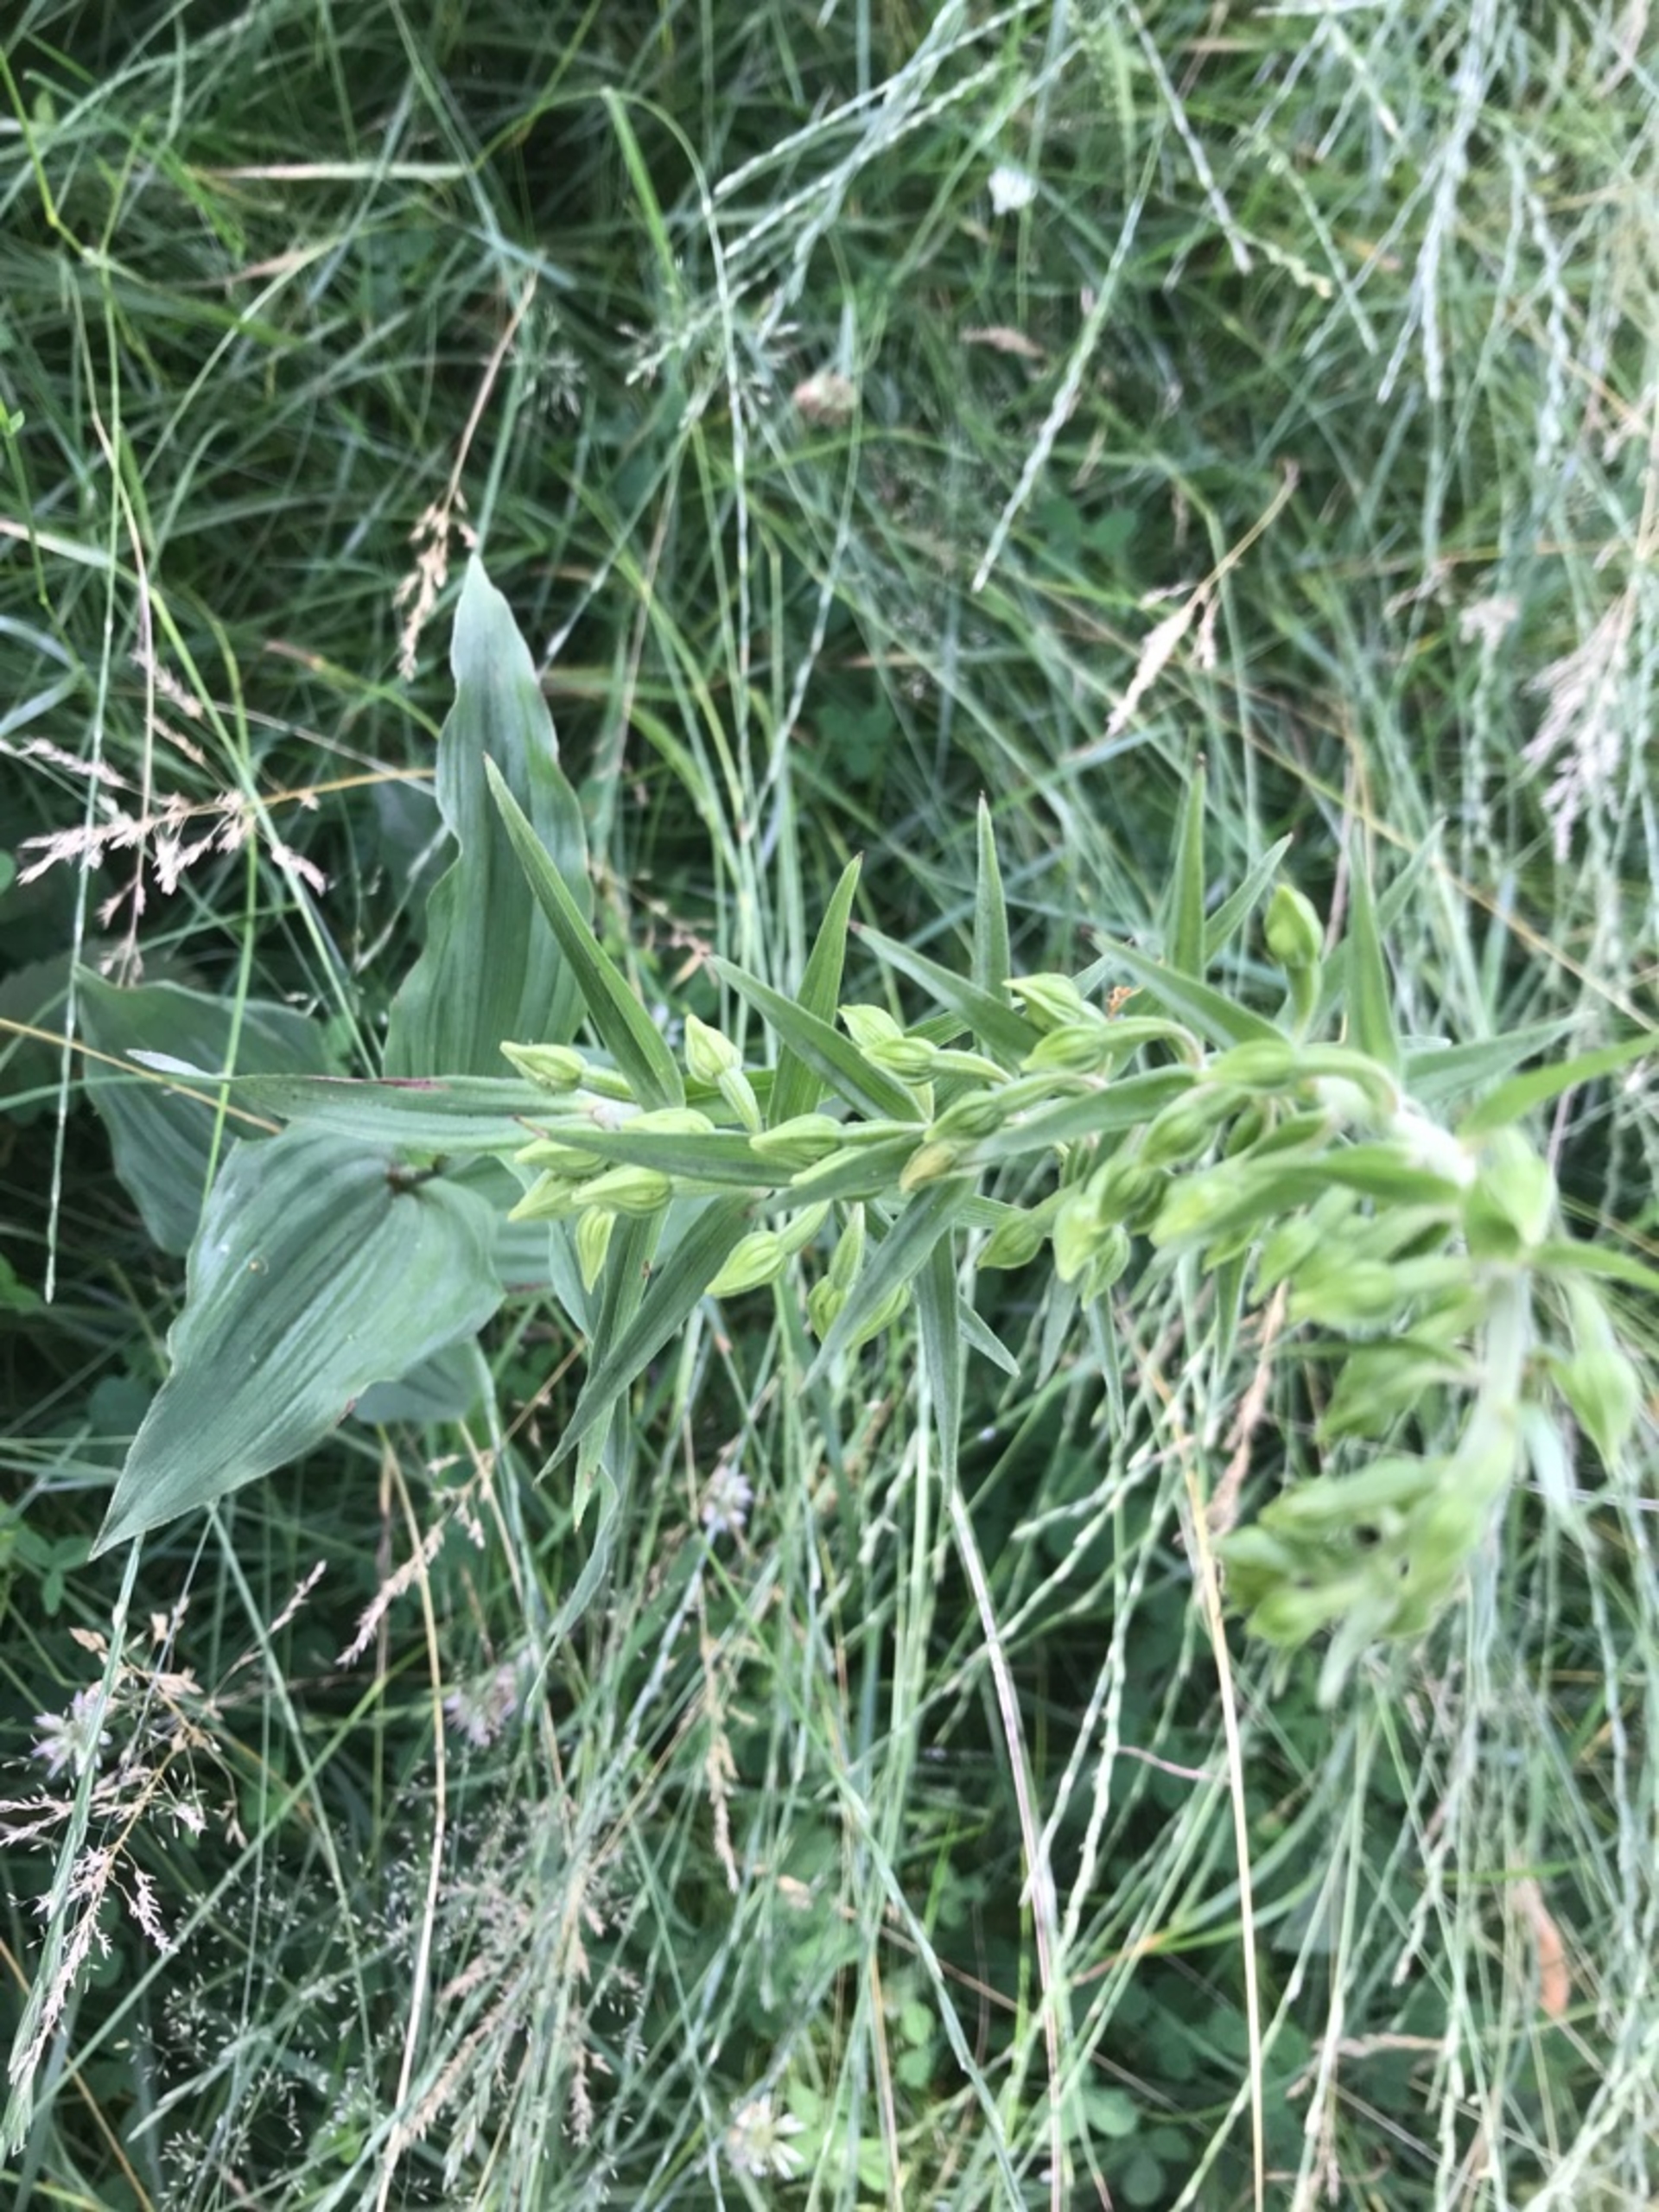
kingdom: Plantae
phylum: Tracheophyta
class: Liliopsida
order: Asparagales
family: Orchidaceae
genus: Epipactis
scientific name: Epipactis helleborine
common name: Skov-hullæbe
